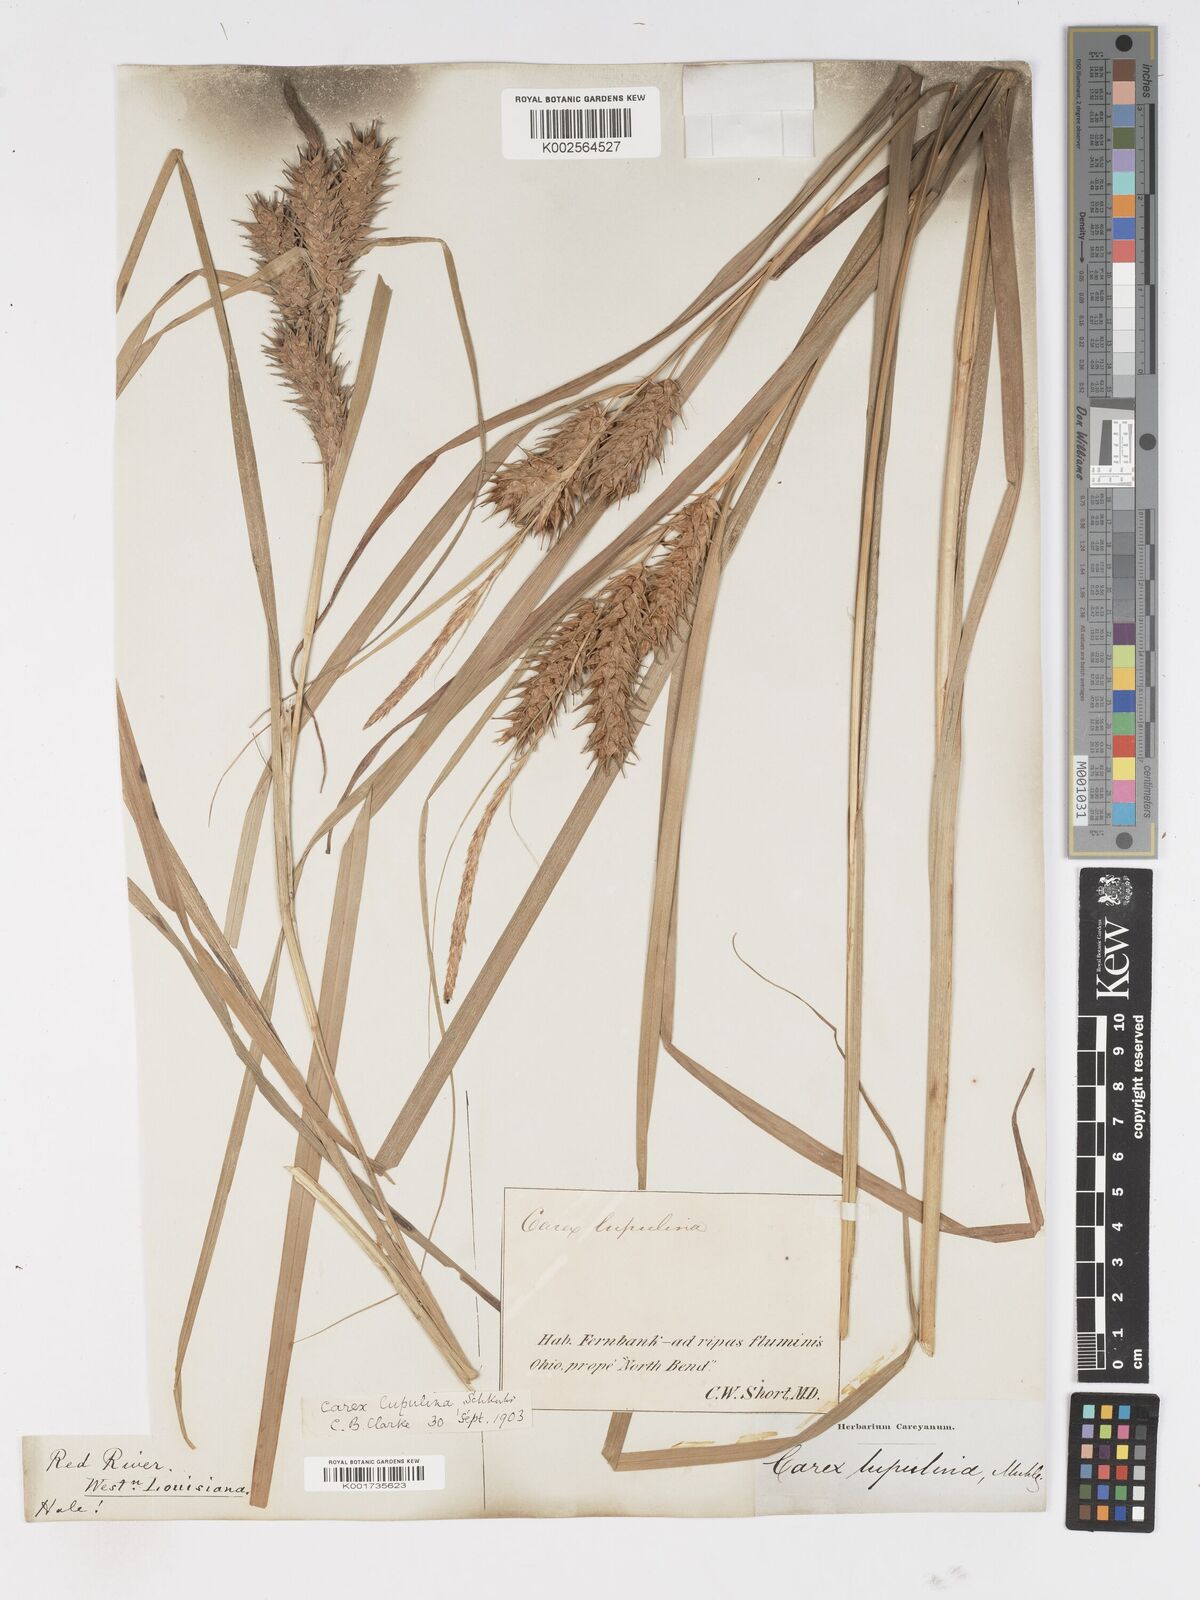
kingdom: Plantae
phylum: Tracheophyta
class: Liliopsida
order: Poales
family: Cyperaceae
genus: Carex
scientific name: Carex lupulina
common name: Hop sedge
